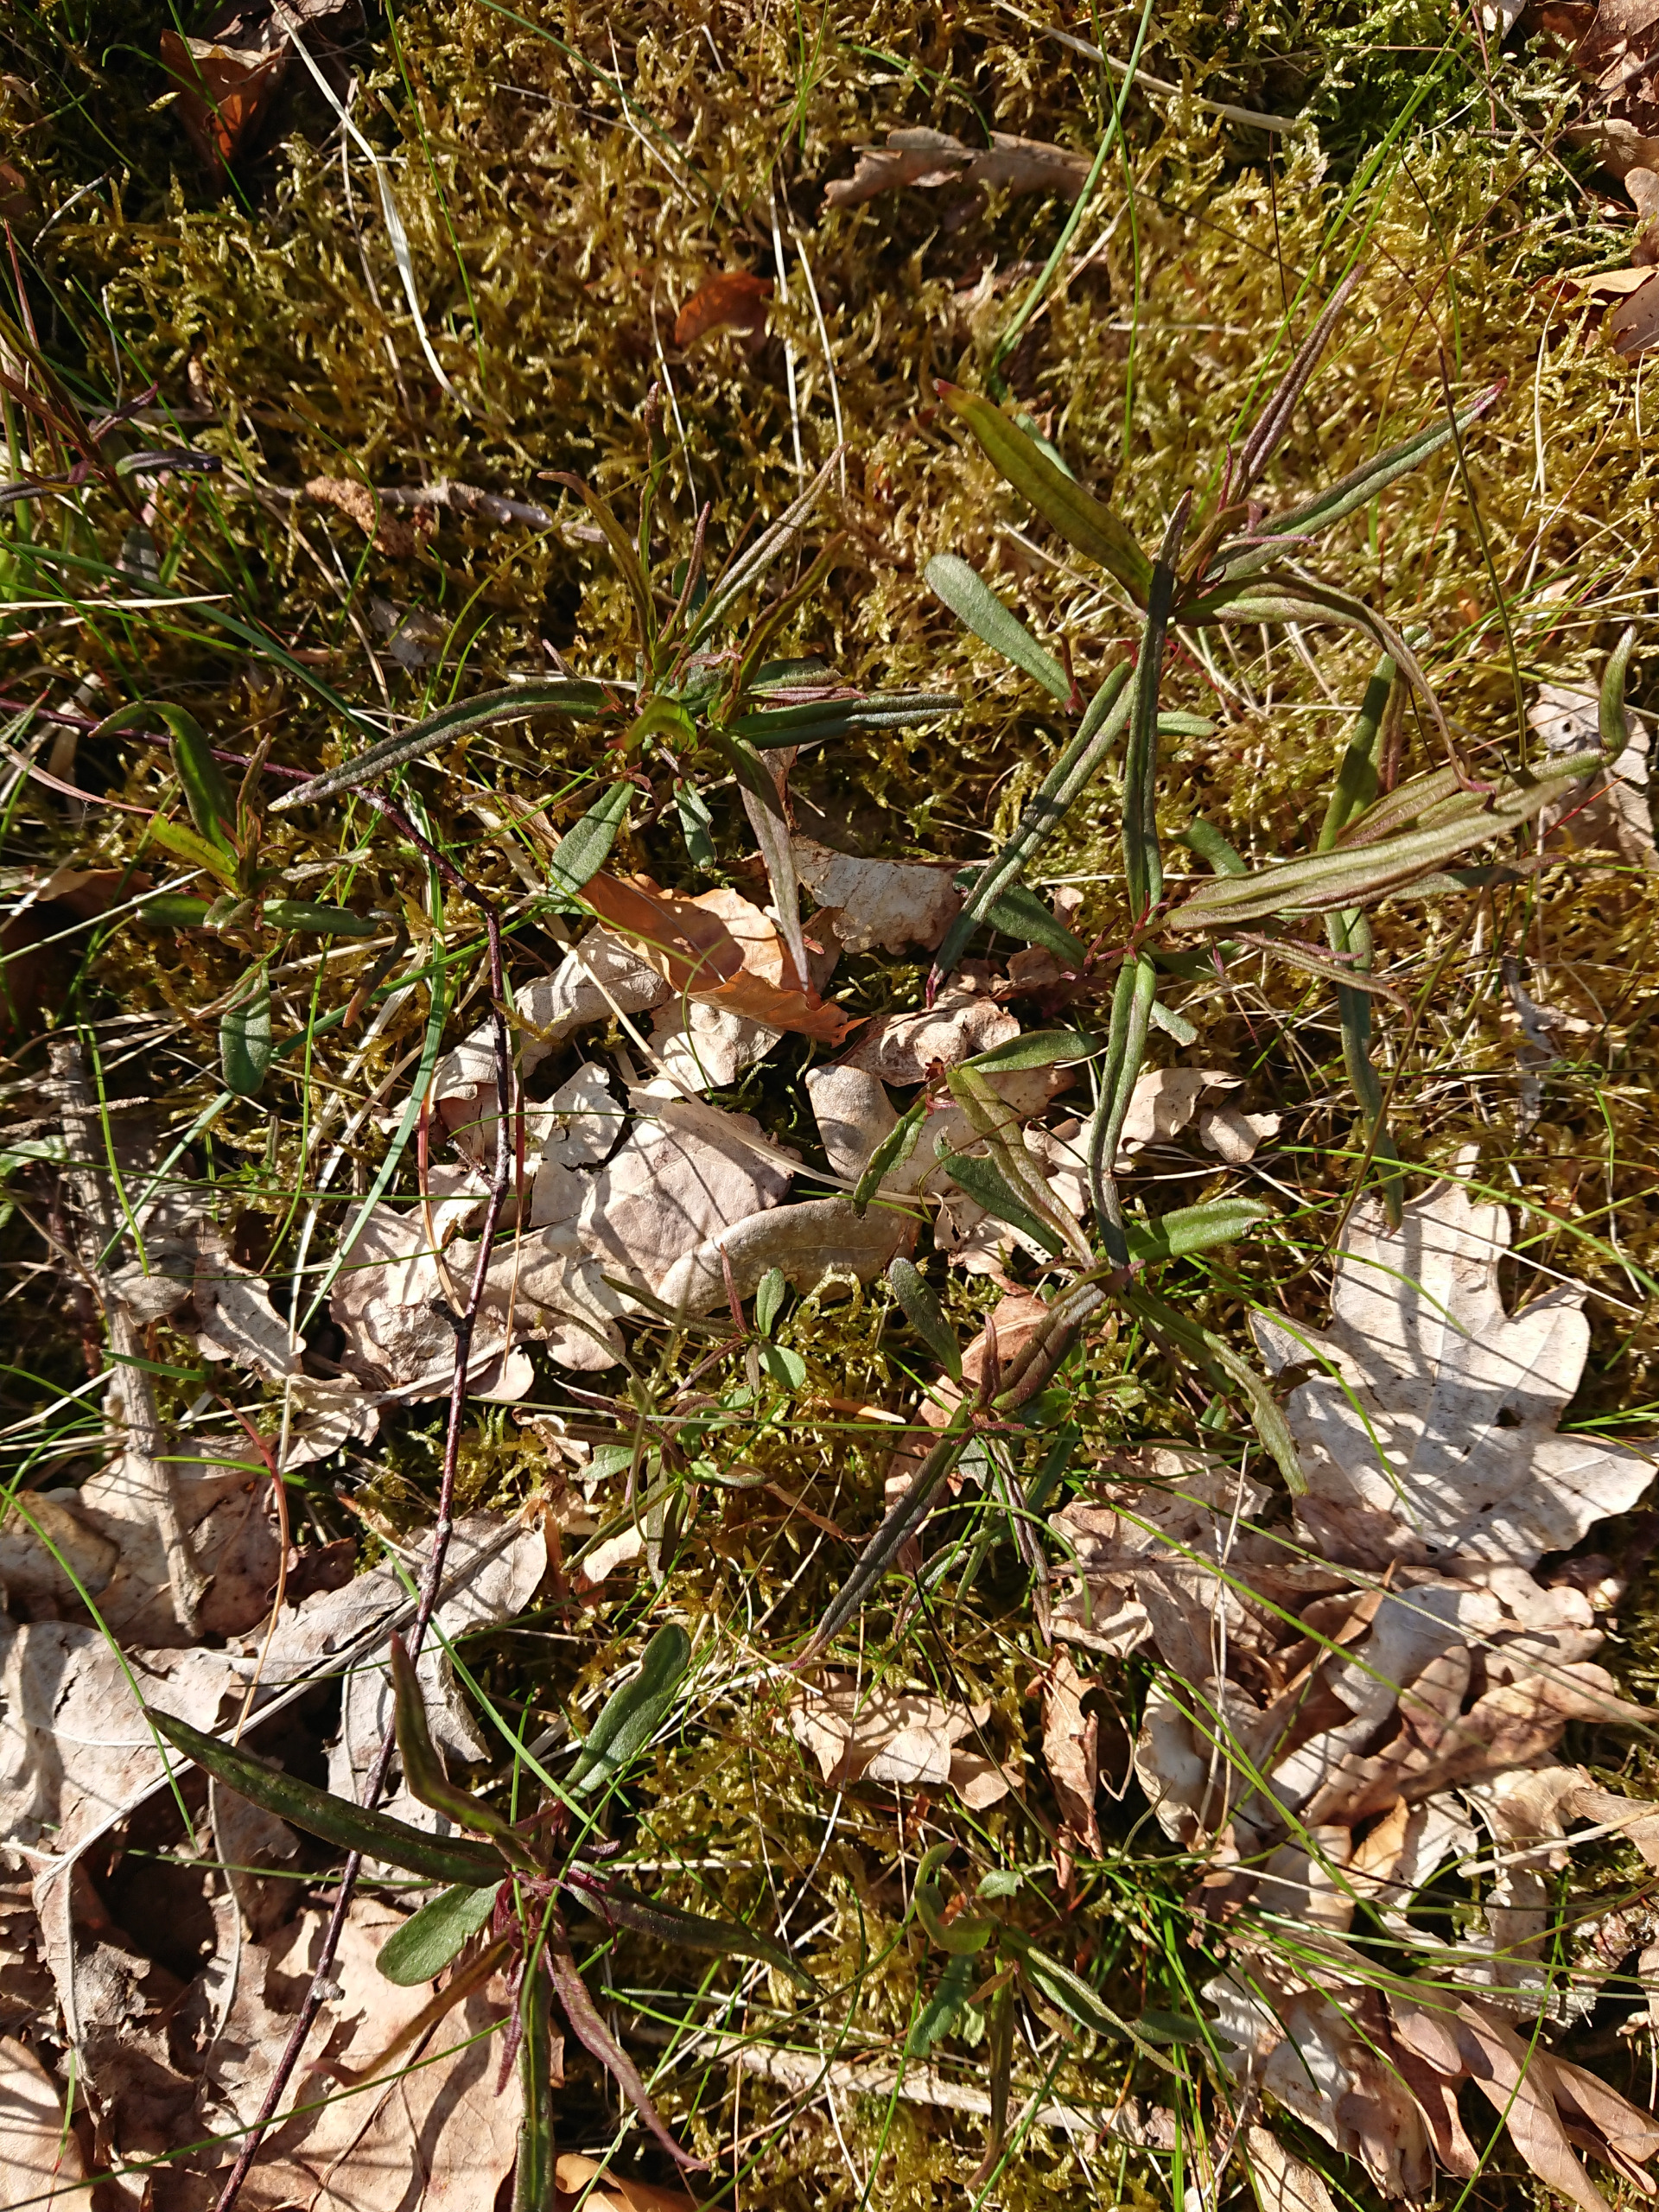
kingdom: Plantae
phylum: Tracheophyta
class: Magnoliopsida
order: Lamiales
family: Orobanchaceae
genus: Melampyrum
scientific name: Melampyrum pratense
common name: Almindelig kohvede
